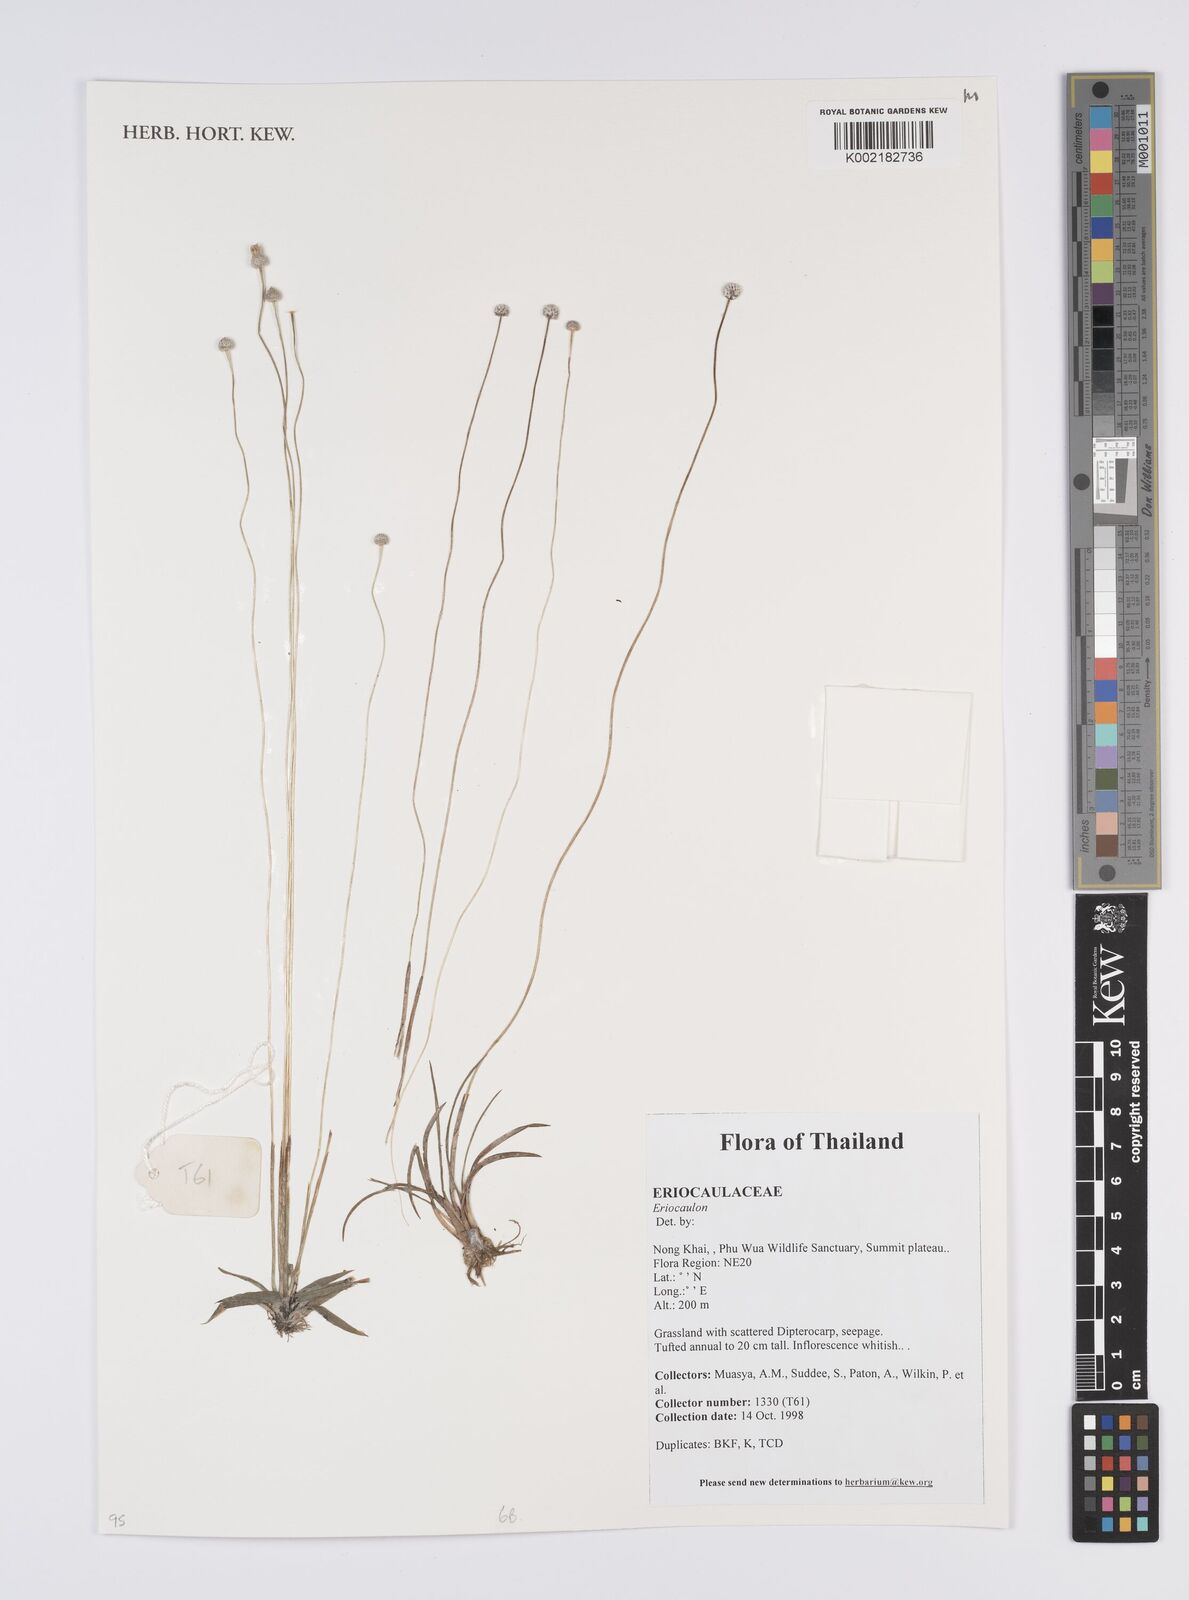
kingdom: Plantae
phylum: Tracheophyta
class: Liliopsida
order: Poales
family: Eriocaulaceae
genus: Eriocaulon
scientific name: Eriocaulon
